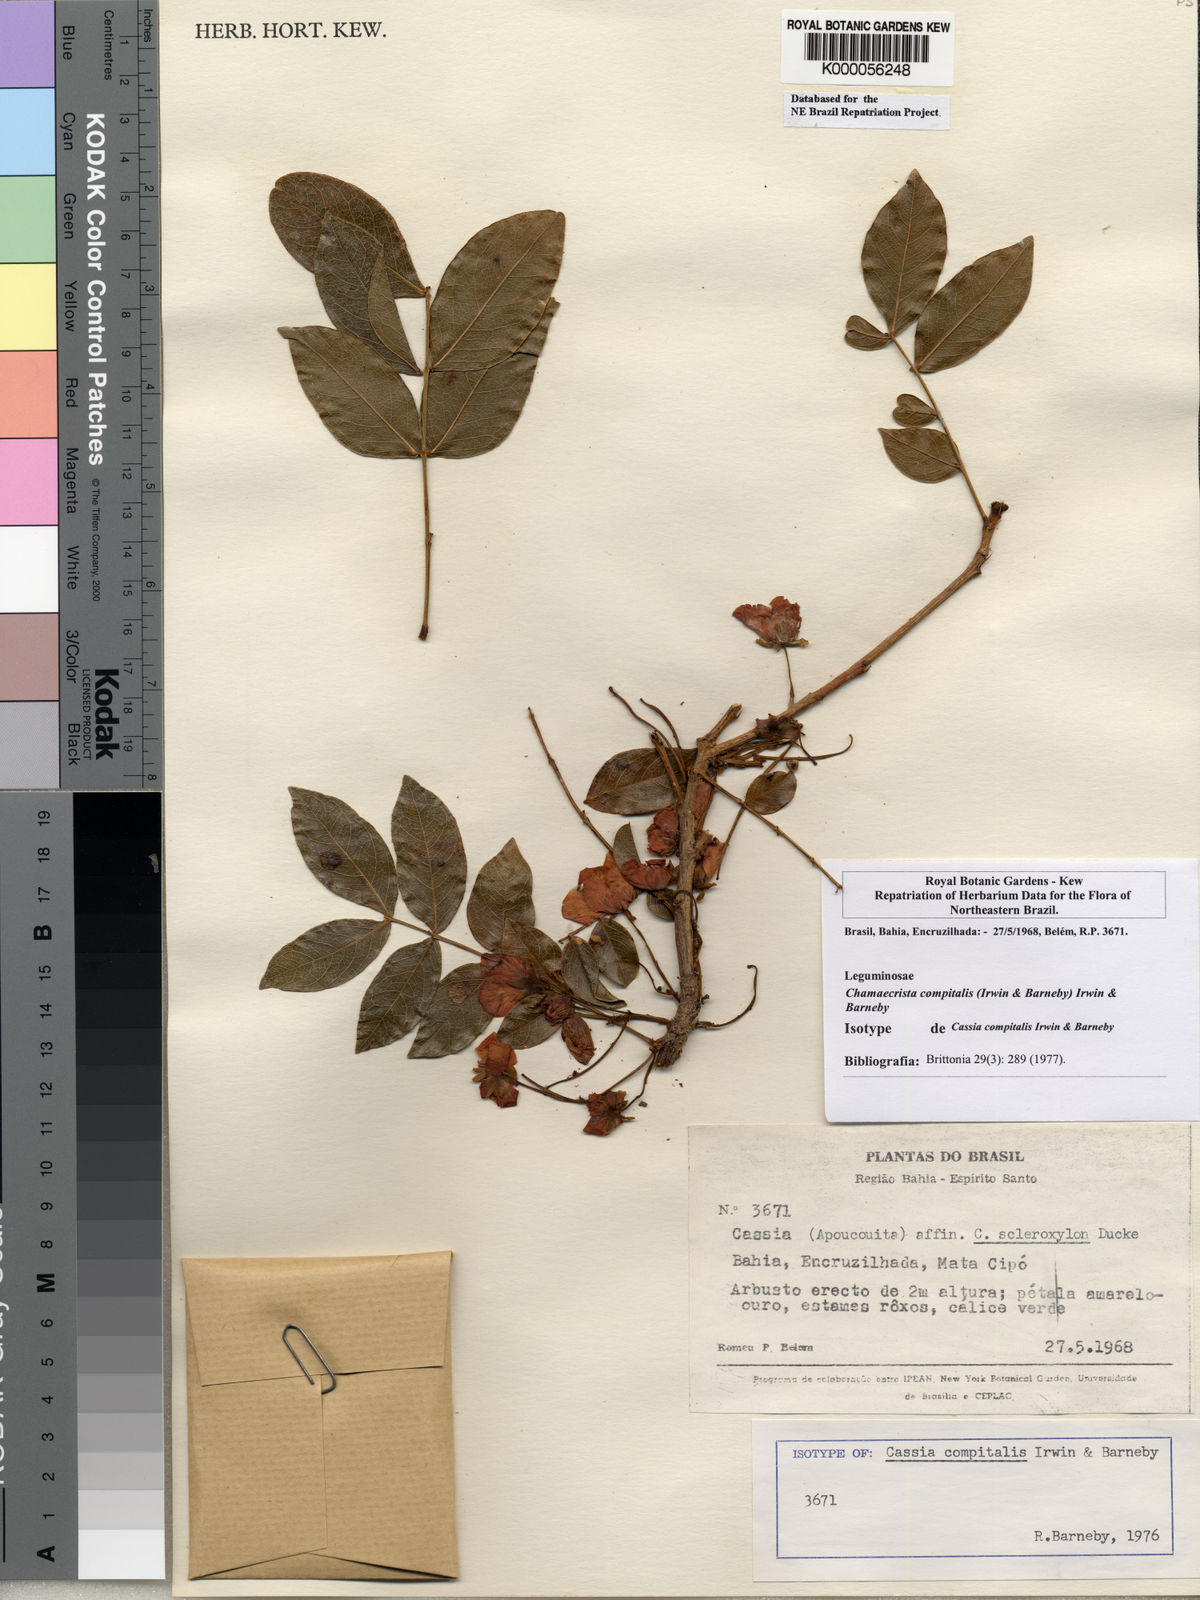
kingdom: Plantae
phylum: Tracheophyta
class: Magnoliopsida
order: Fabales
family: Fabaceae
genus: Chamaecrista
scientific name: Chamaecrista compitalis
